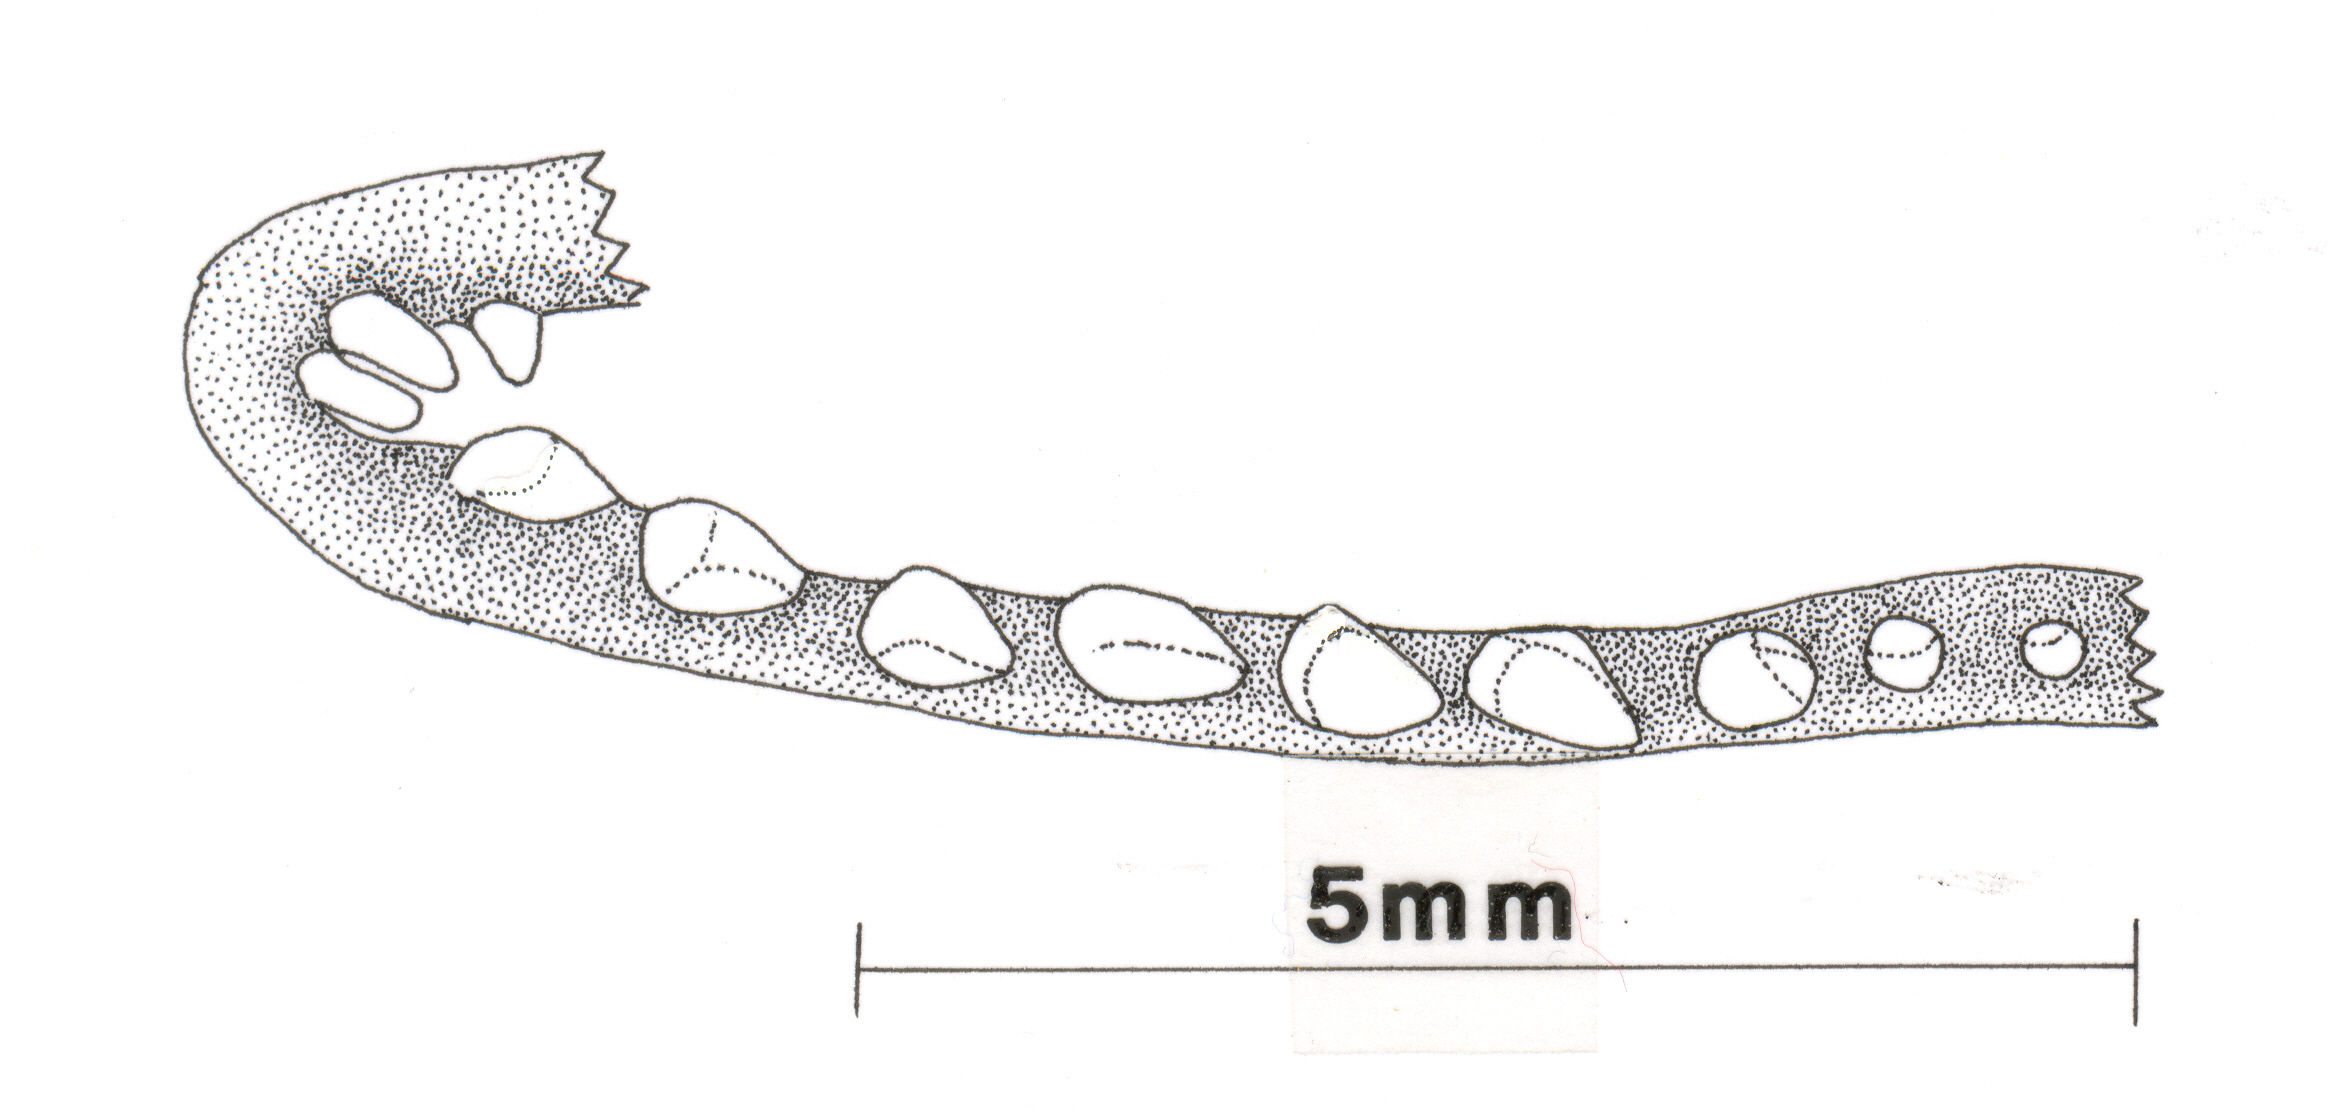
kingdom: Animalia
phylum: Chordata
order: Perciformes
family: Zoarcidae
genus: Bothrocara
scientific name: Bothrocara pusillum
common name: Alaska eelpout
